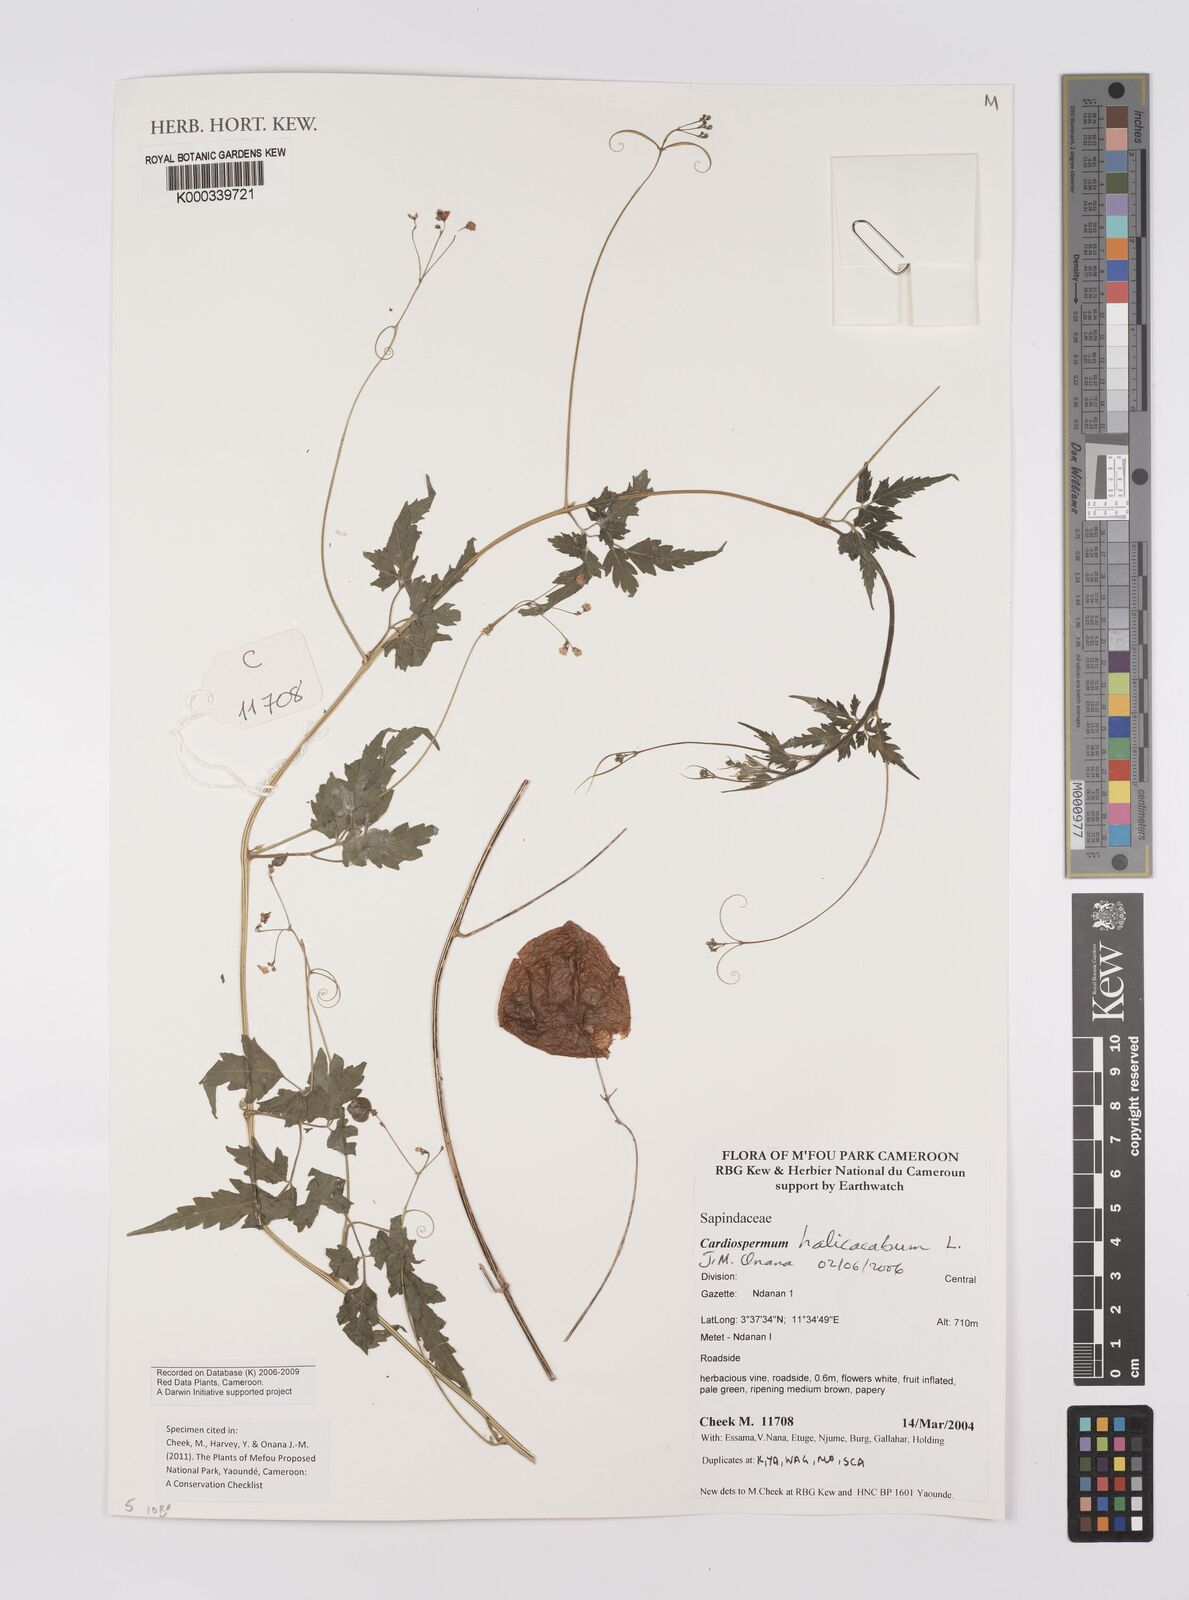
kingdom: Plantae
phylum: Tracheophyta
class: Magnoliopsida
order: Sapindales
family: Sapindaceae
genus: Cardiospermum
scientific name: Cardiospermum halicacabum
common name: Balloon vine
